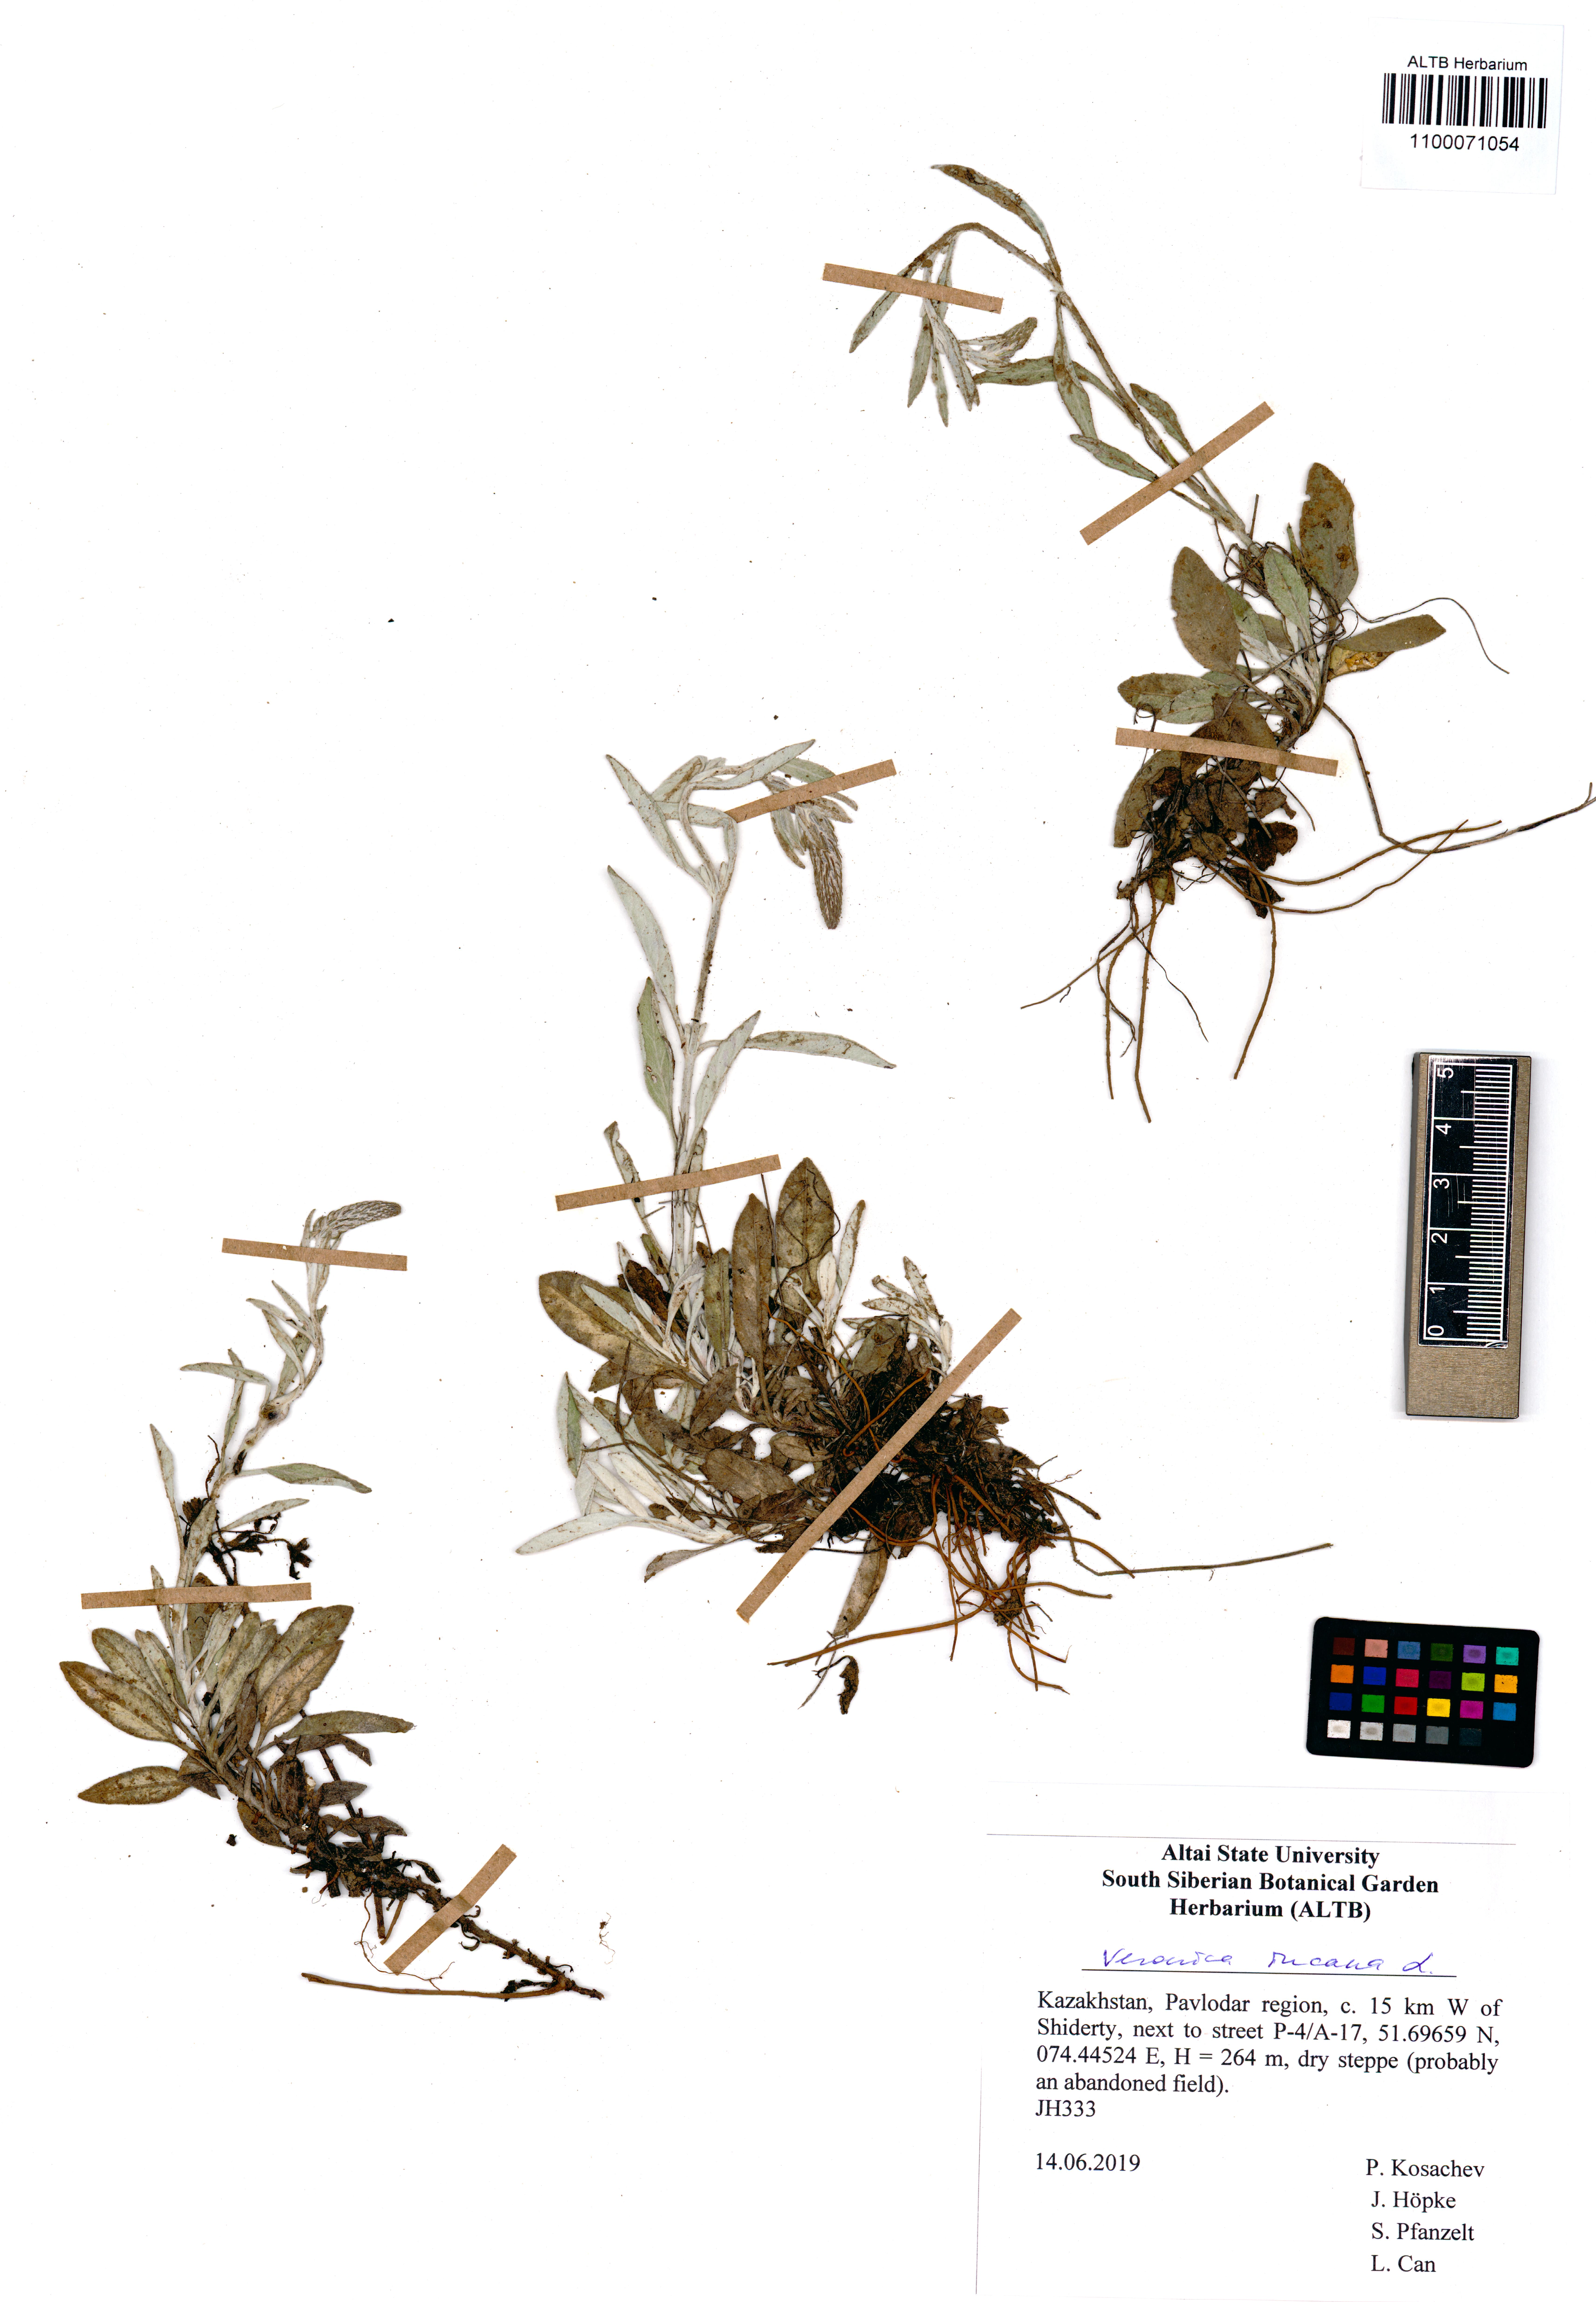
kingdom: Plantae
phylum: Tracheophyta
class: Magnoliopsida
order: Lamiales
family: Plantaginaceae
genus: Veronica
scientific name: Veronica incana
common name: Silver speedwell
